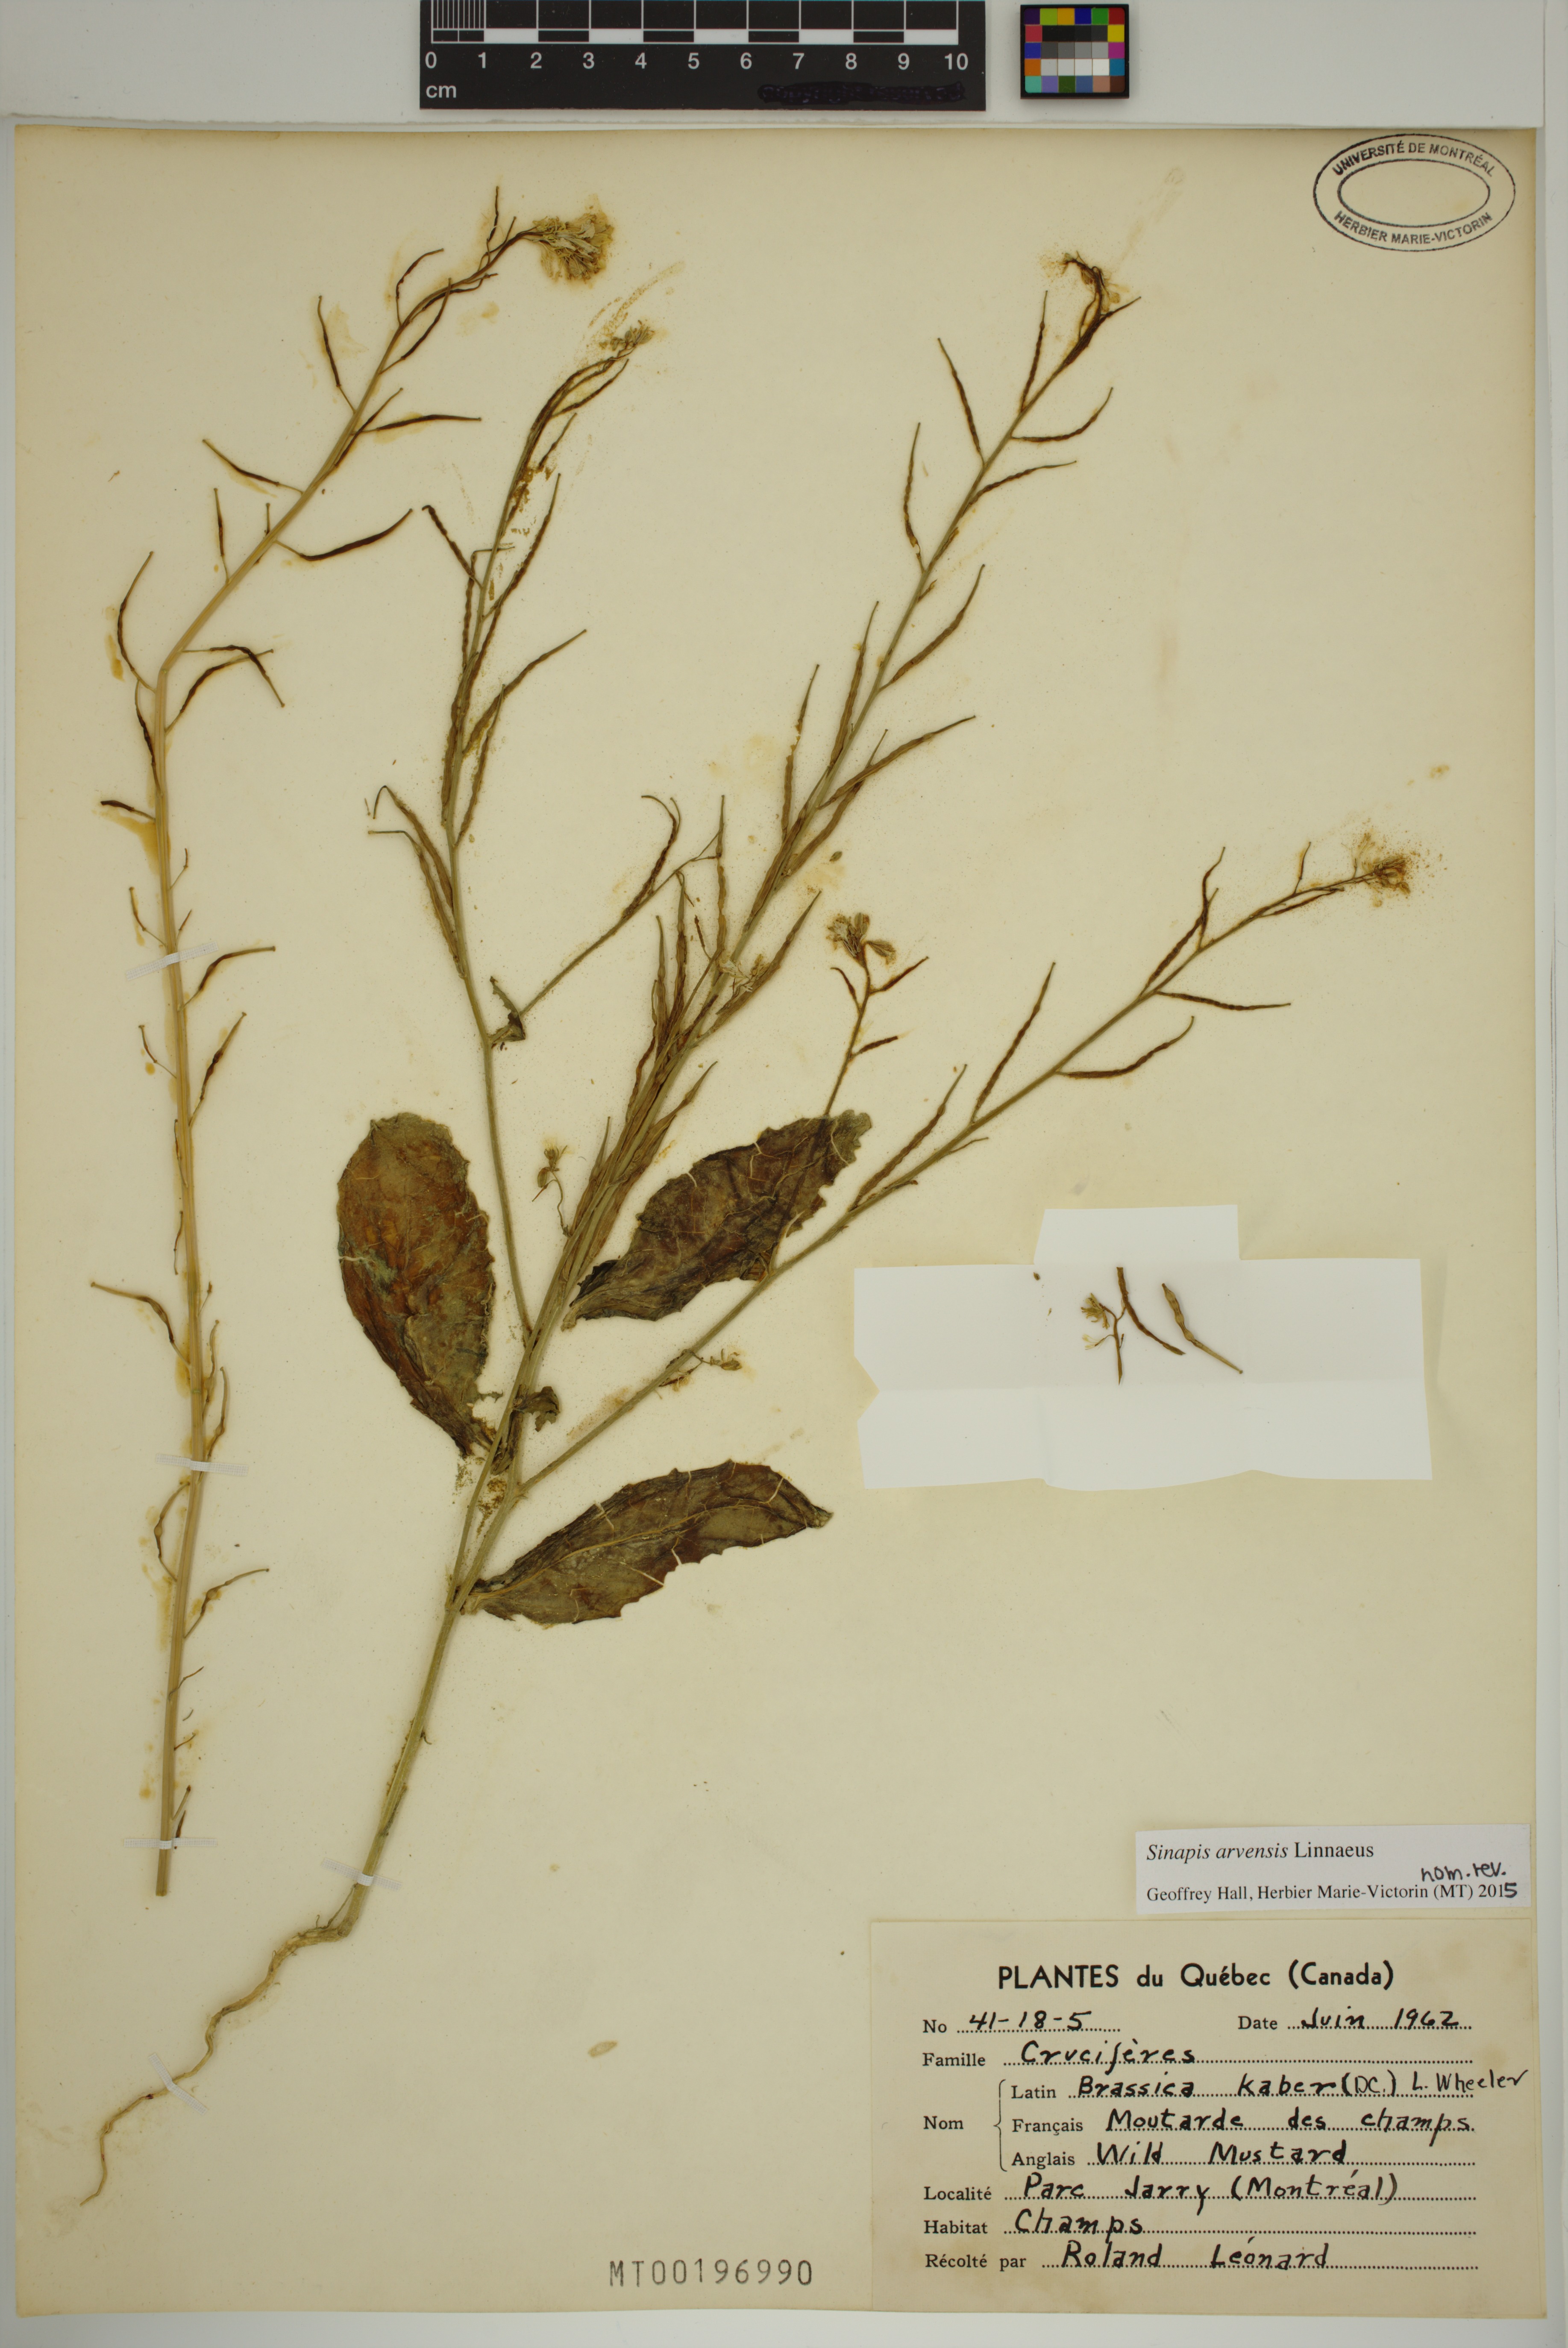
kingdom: Plantae
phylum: Tracheophyta
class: Magnoliopsida
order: Brassicales
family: Brassicaceae
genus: Sinapis
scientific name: Sinapis arvensis
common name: Charlock
